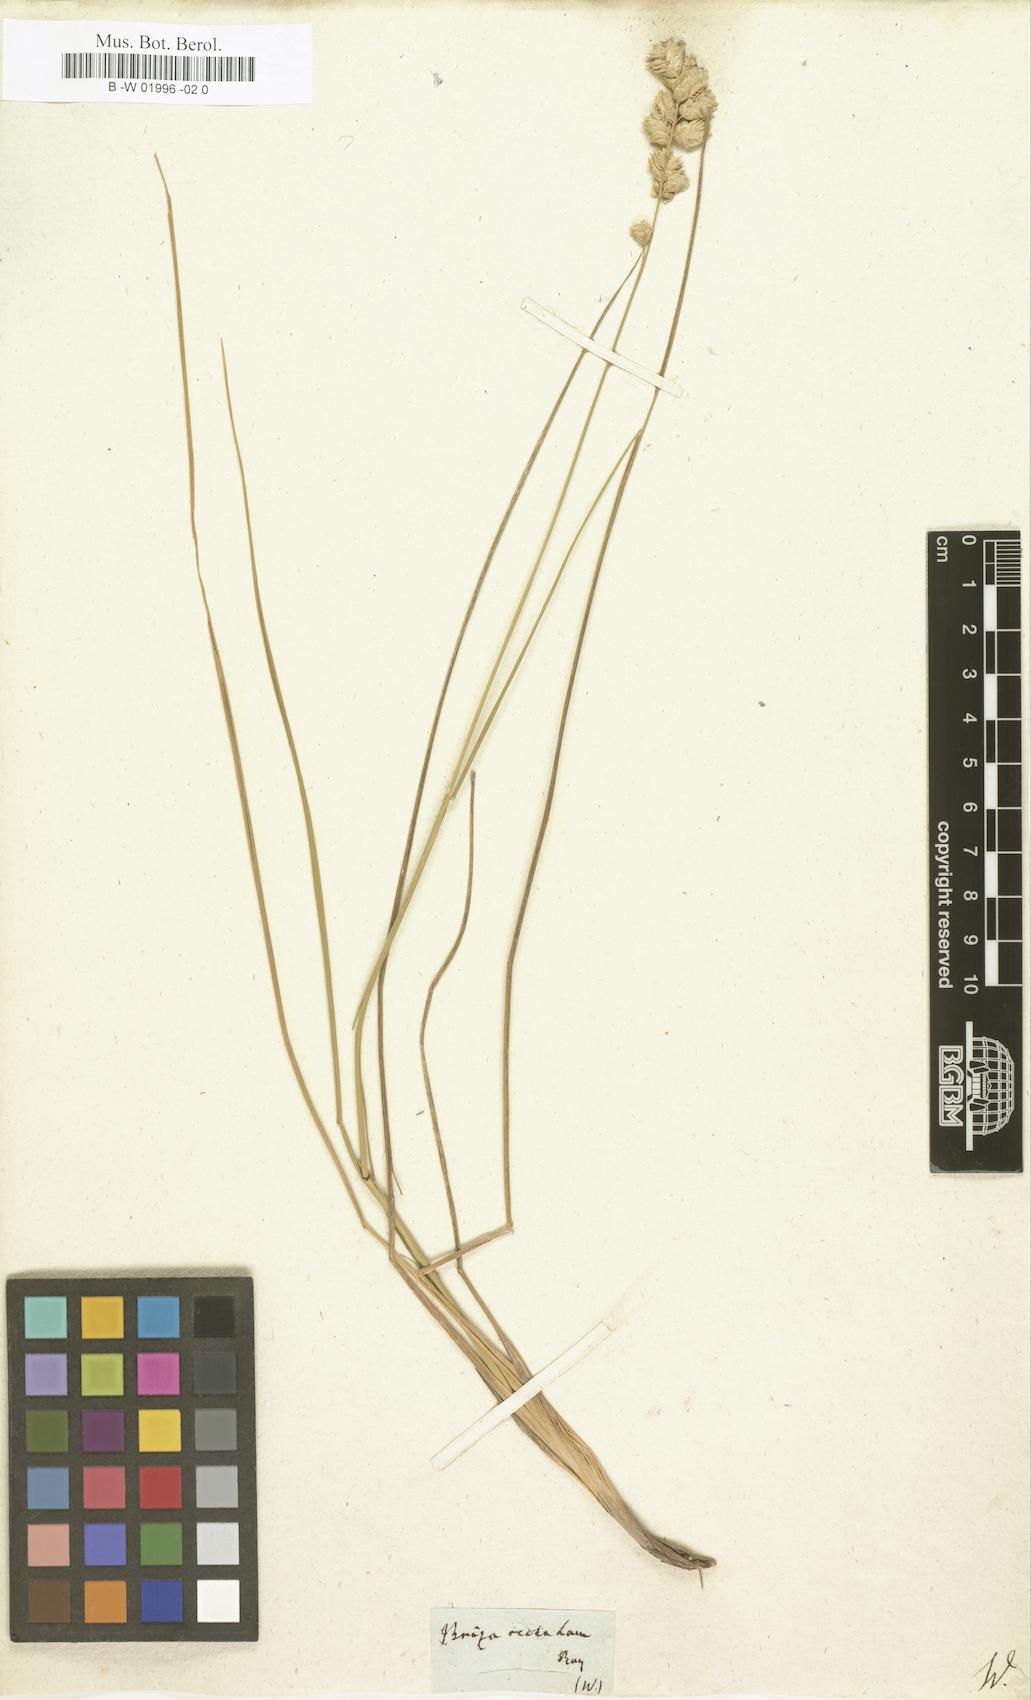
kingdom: Plantae
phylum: Tracheophyta
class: Liliopsida
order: Poales
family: Poaceae
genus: Chascolytrum
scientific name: Chascolytrum erectum
